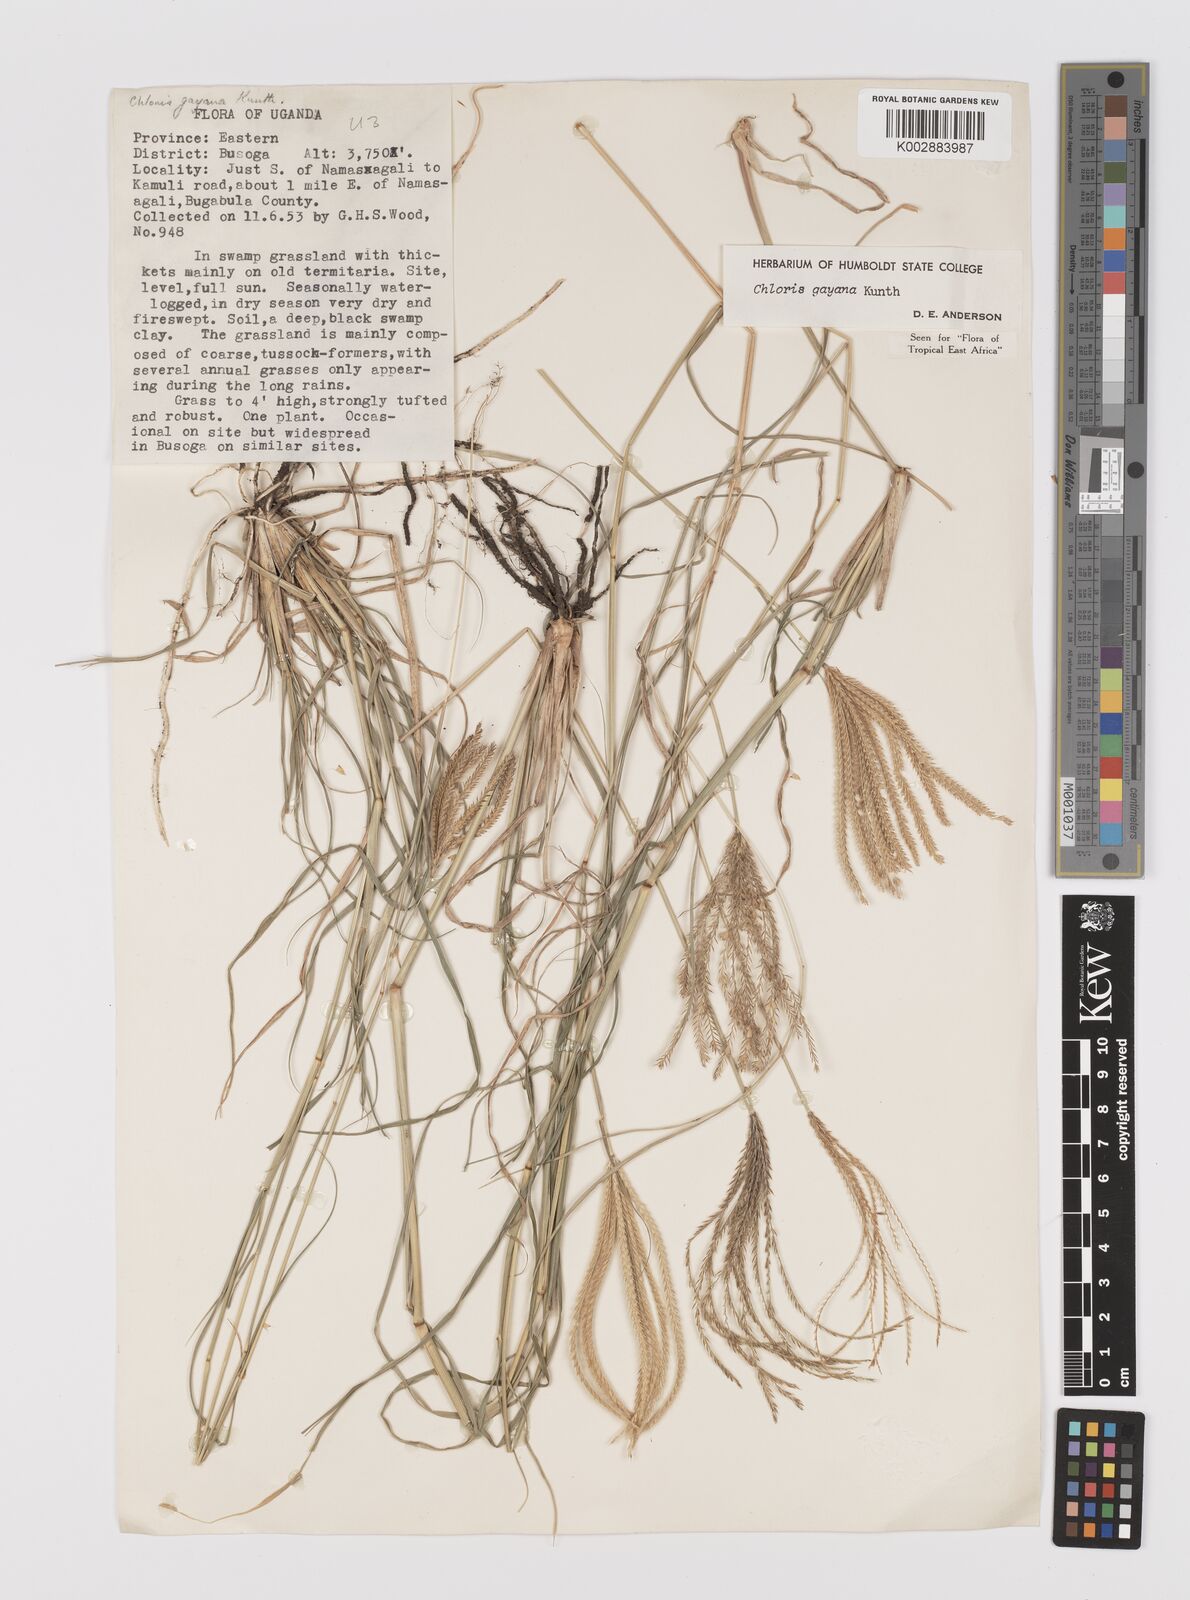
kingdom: Plantae
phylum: Tracheophyta
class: Liliopsida
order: Poales
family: Poaceae
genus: Chloris
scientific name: Chloris gayana
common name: Rhodes grass
